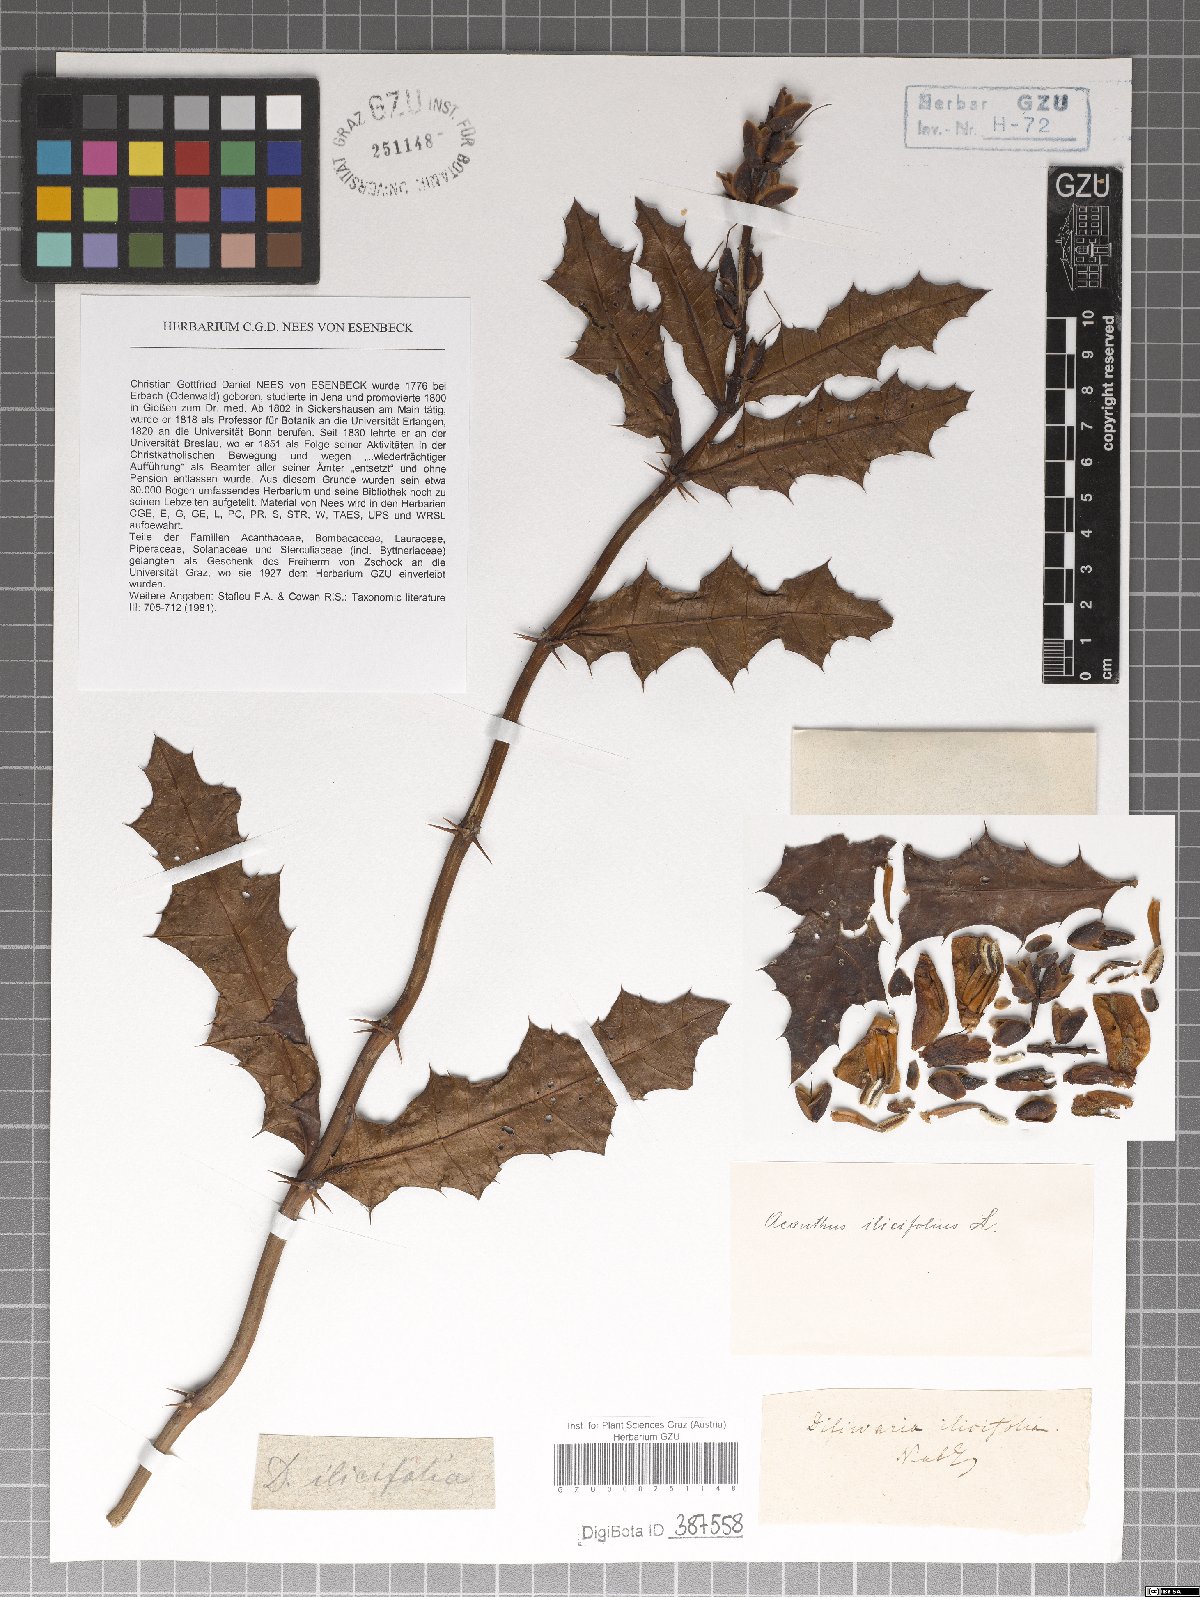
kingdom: Plantae
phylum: Tracheophyta
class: Magnoliopsida
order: Lamiales
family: Acanthaceae
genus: Acanthus
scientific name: Acanthus ilicifolius
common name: Holy mangrove
